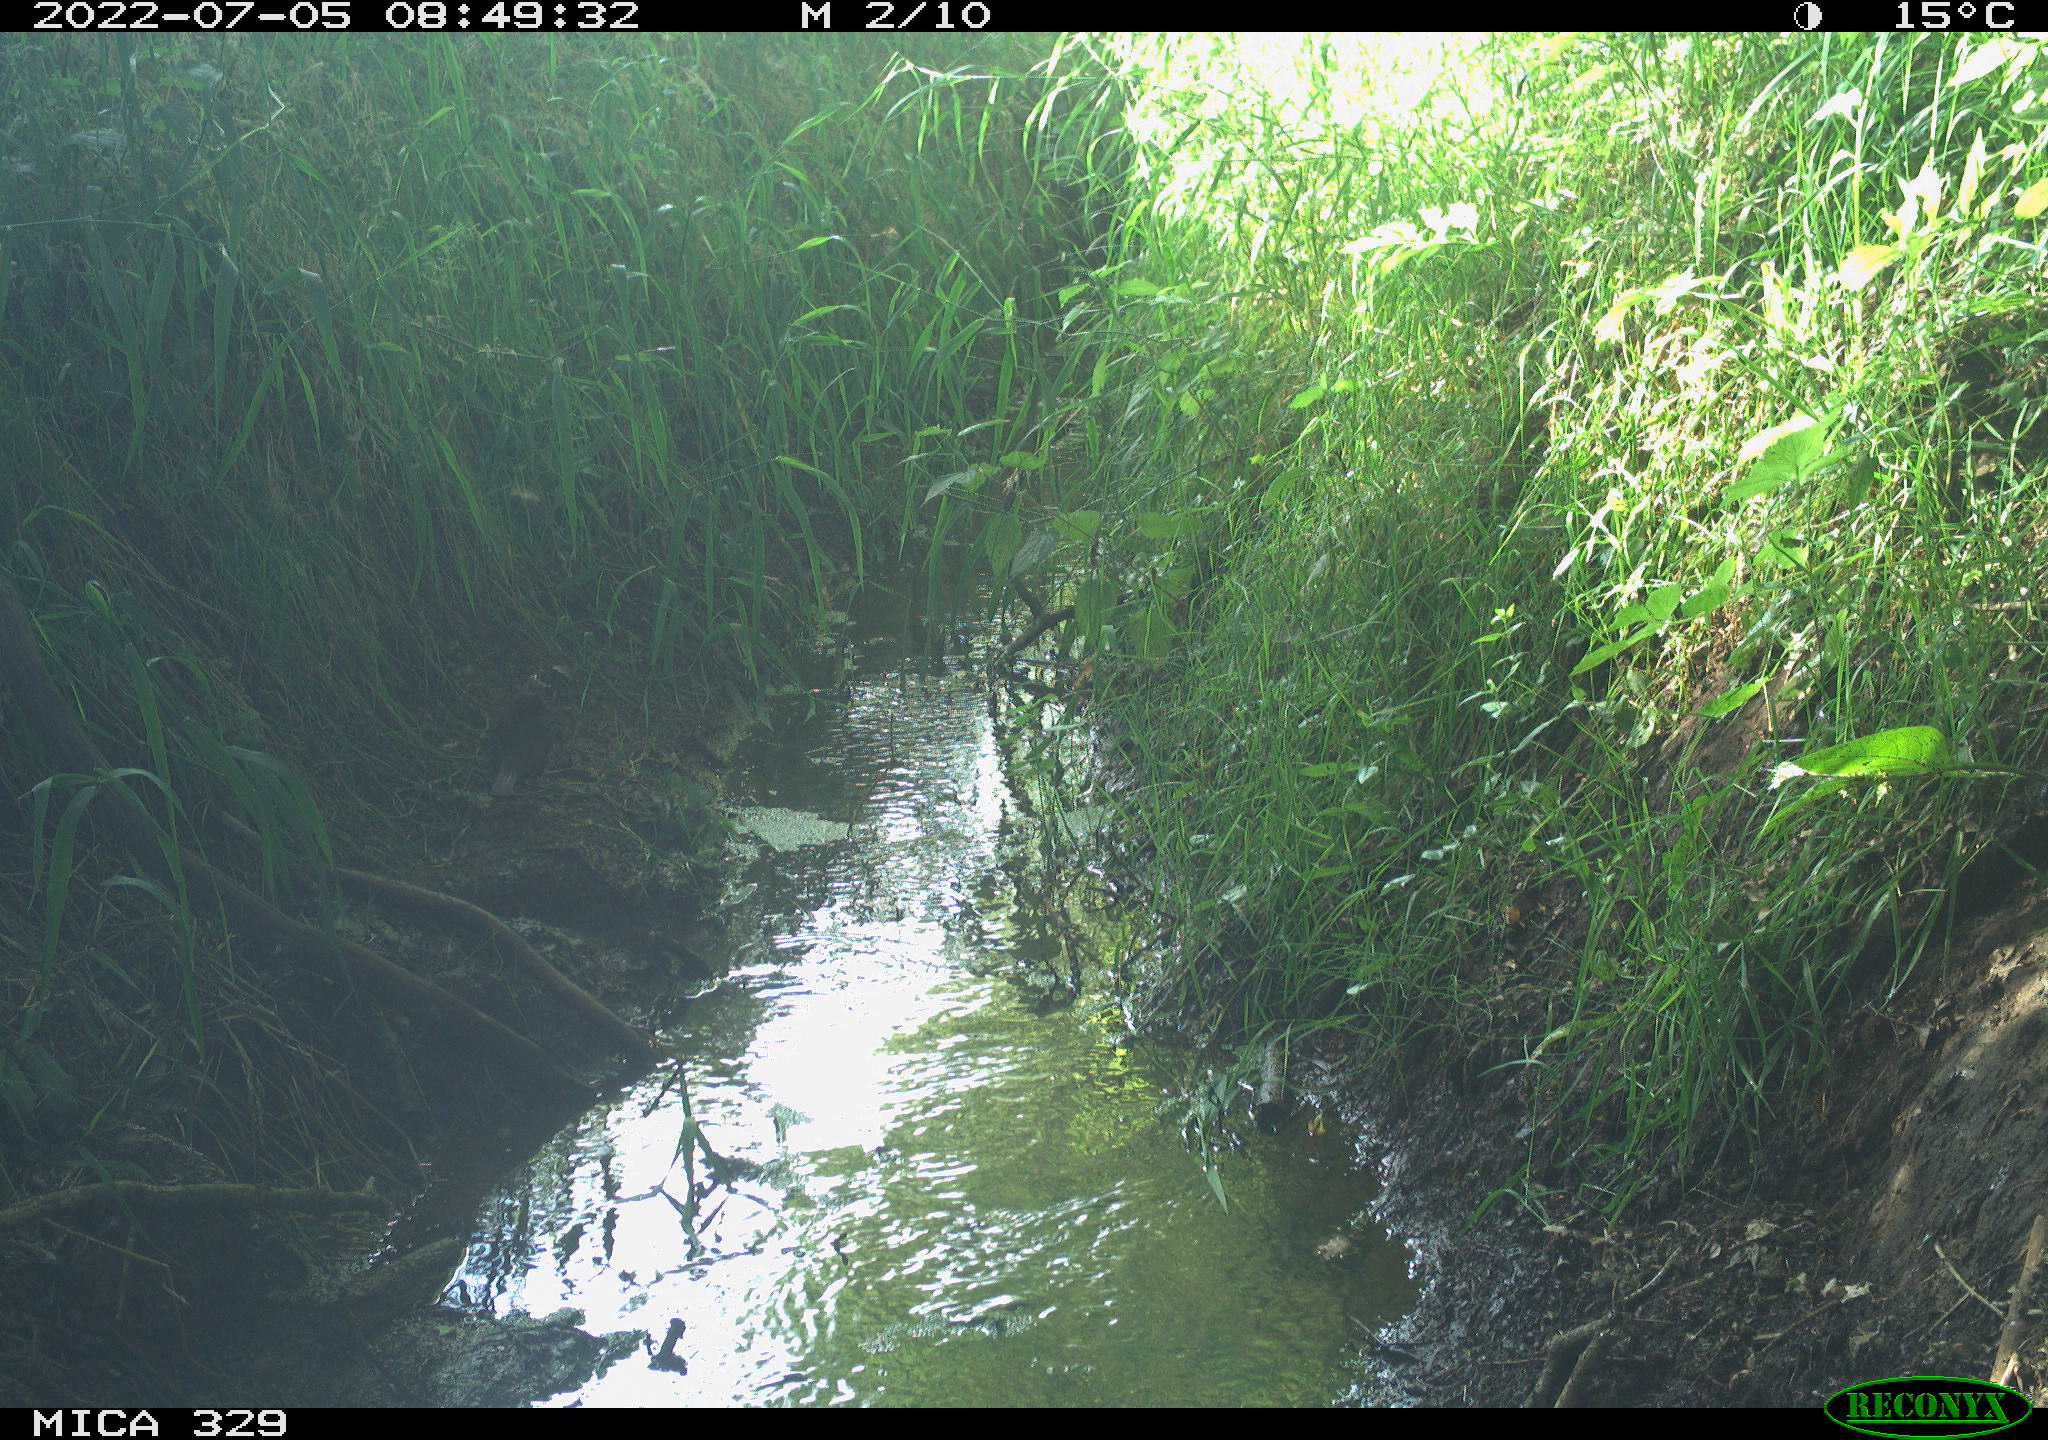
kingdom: Animalia
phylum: Chordata
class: Aves
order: Passeriformes
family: Turdidae
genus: Turdus
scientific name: Turdus merula
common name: Common blackbird
